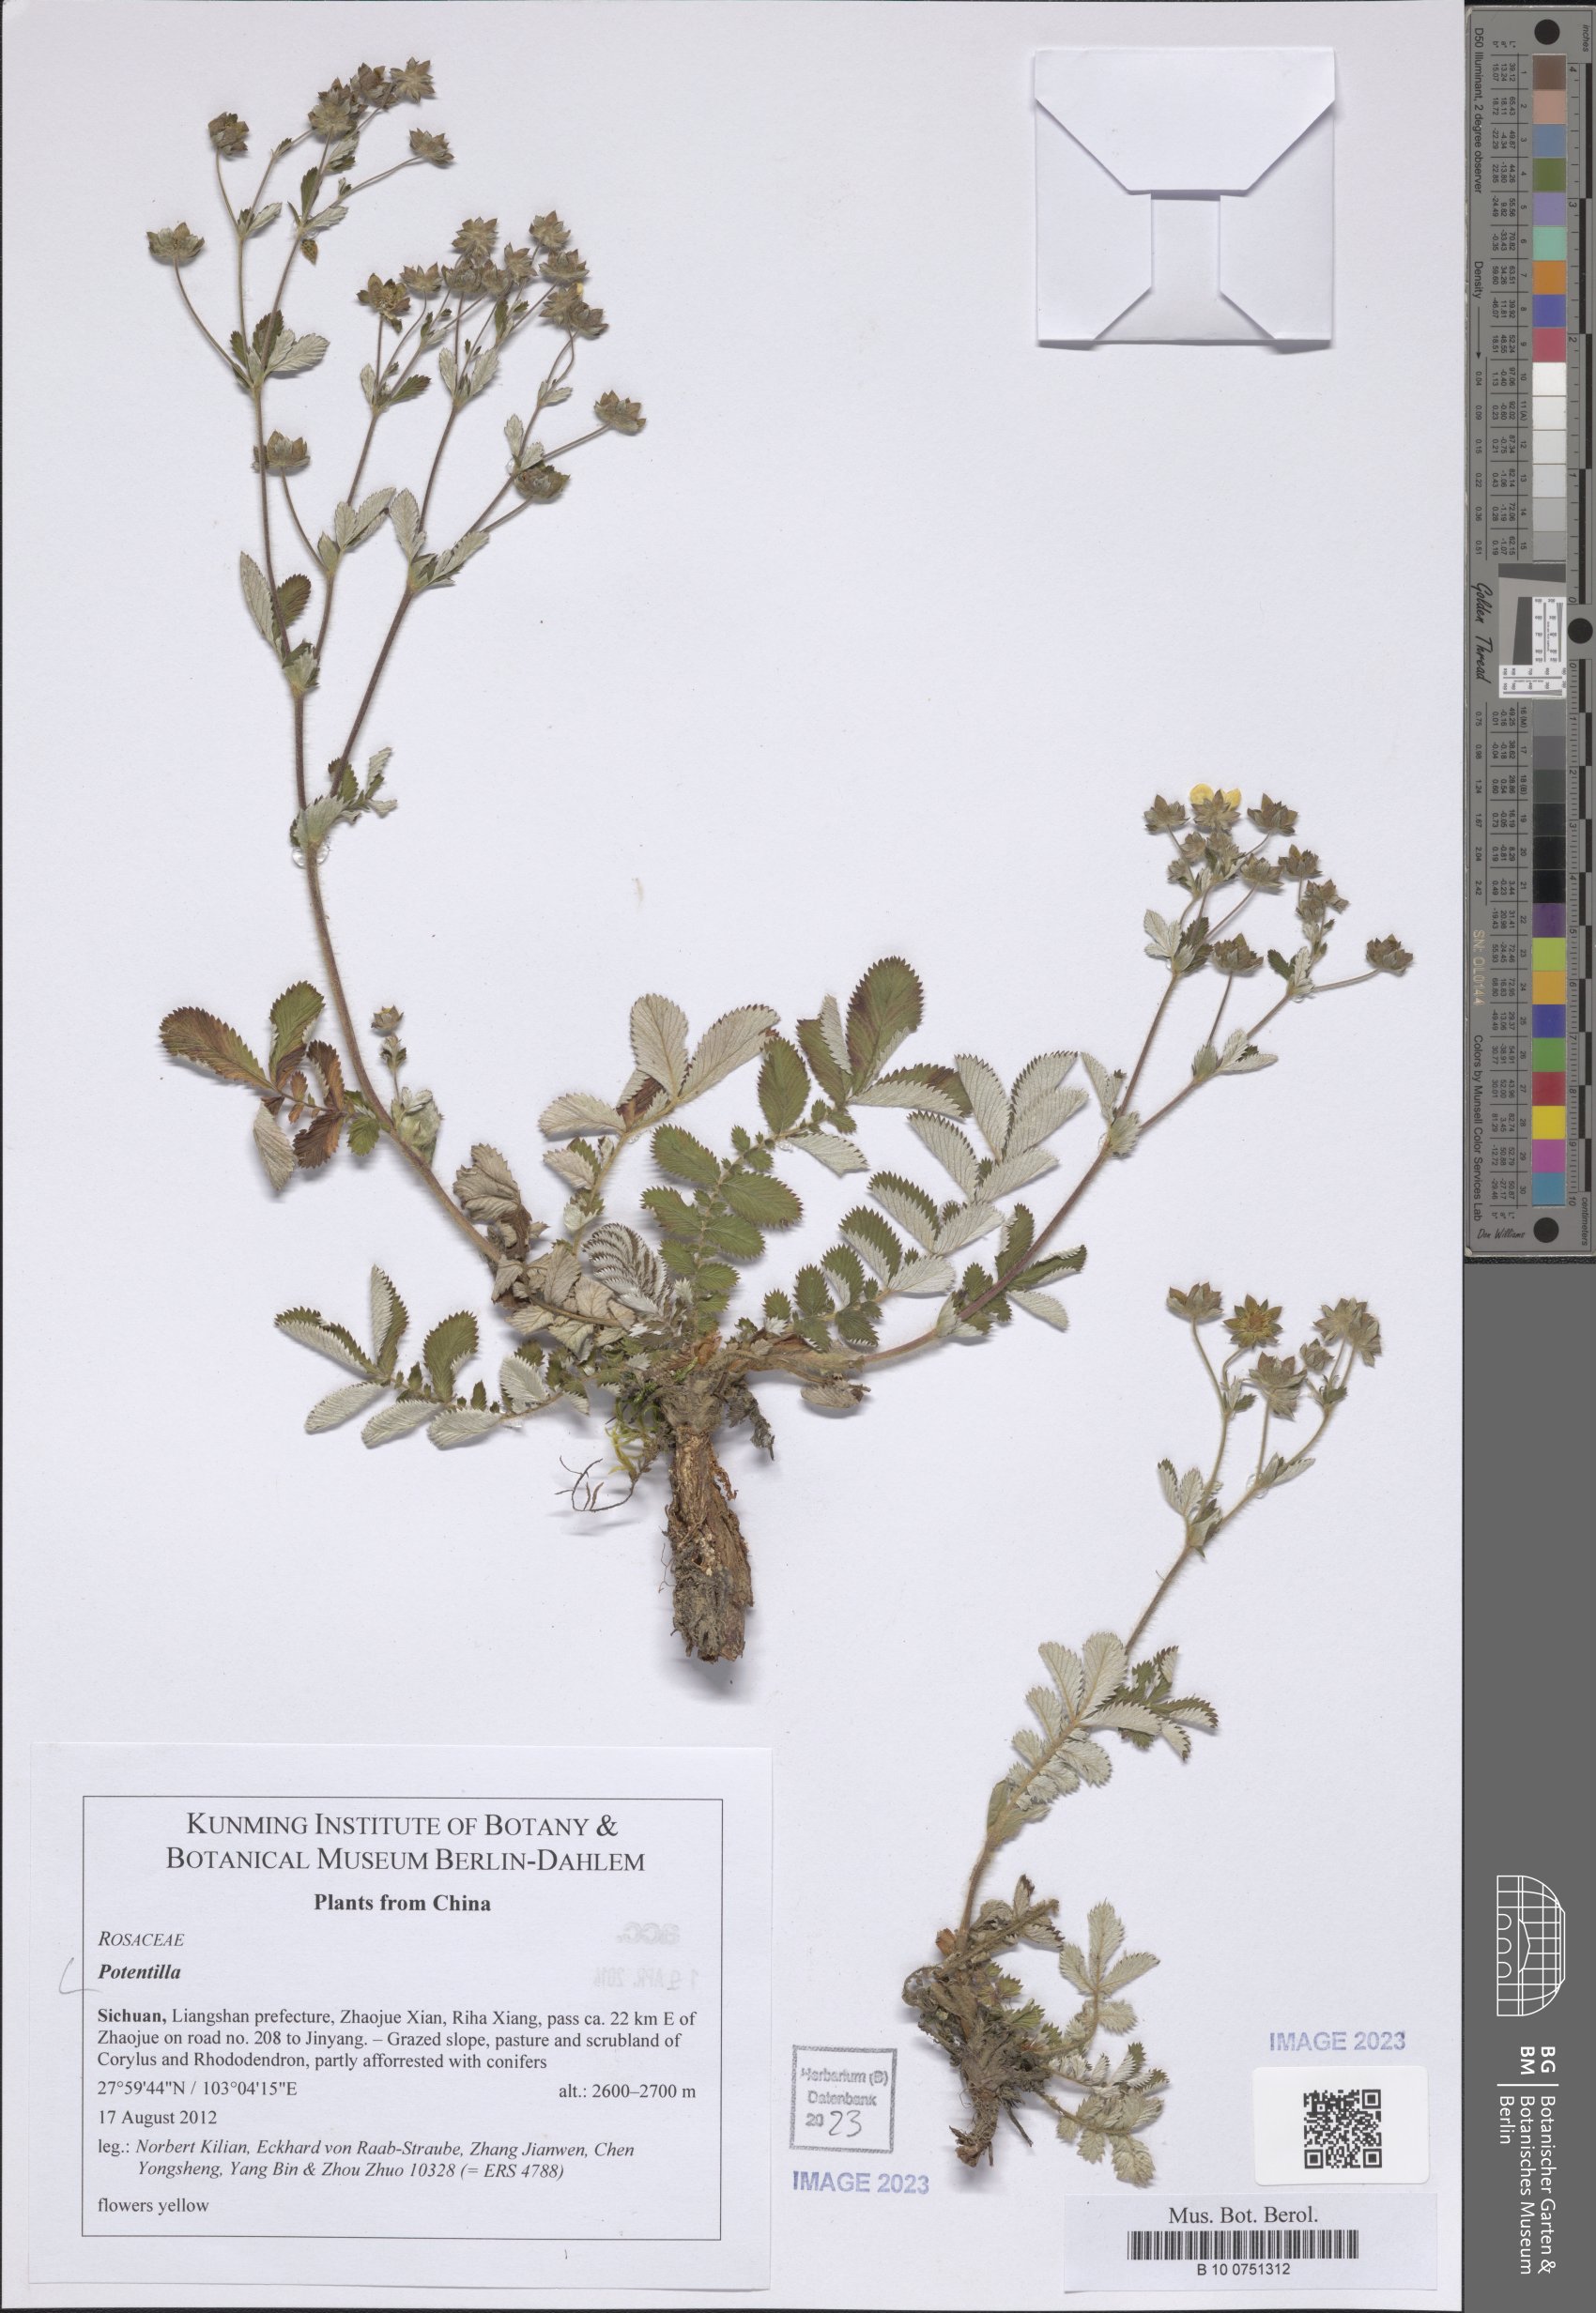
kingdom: Plantae
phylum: Tracheophyta
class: Magnoliopsida
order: Rosales
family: Rosaceae
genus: Potentilla
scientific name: Potentilla
